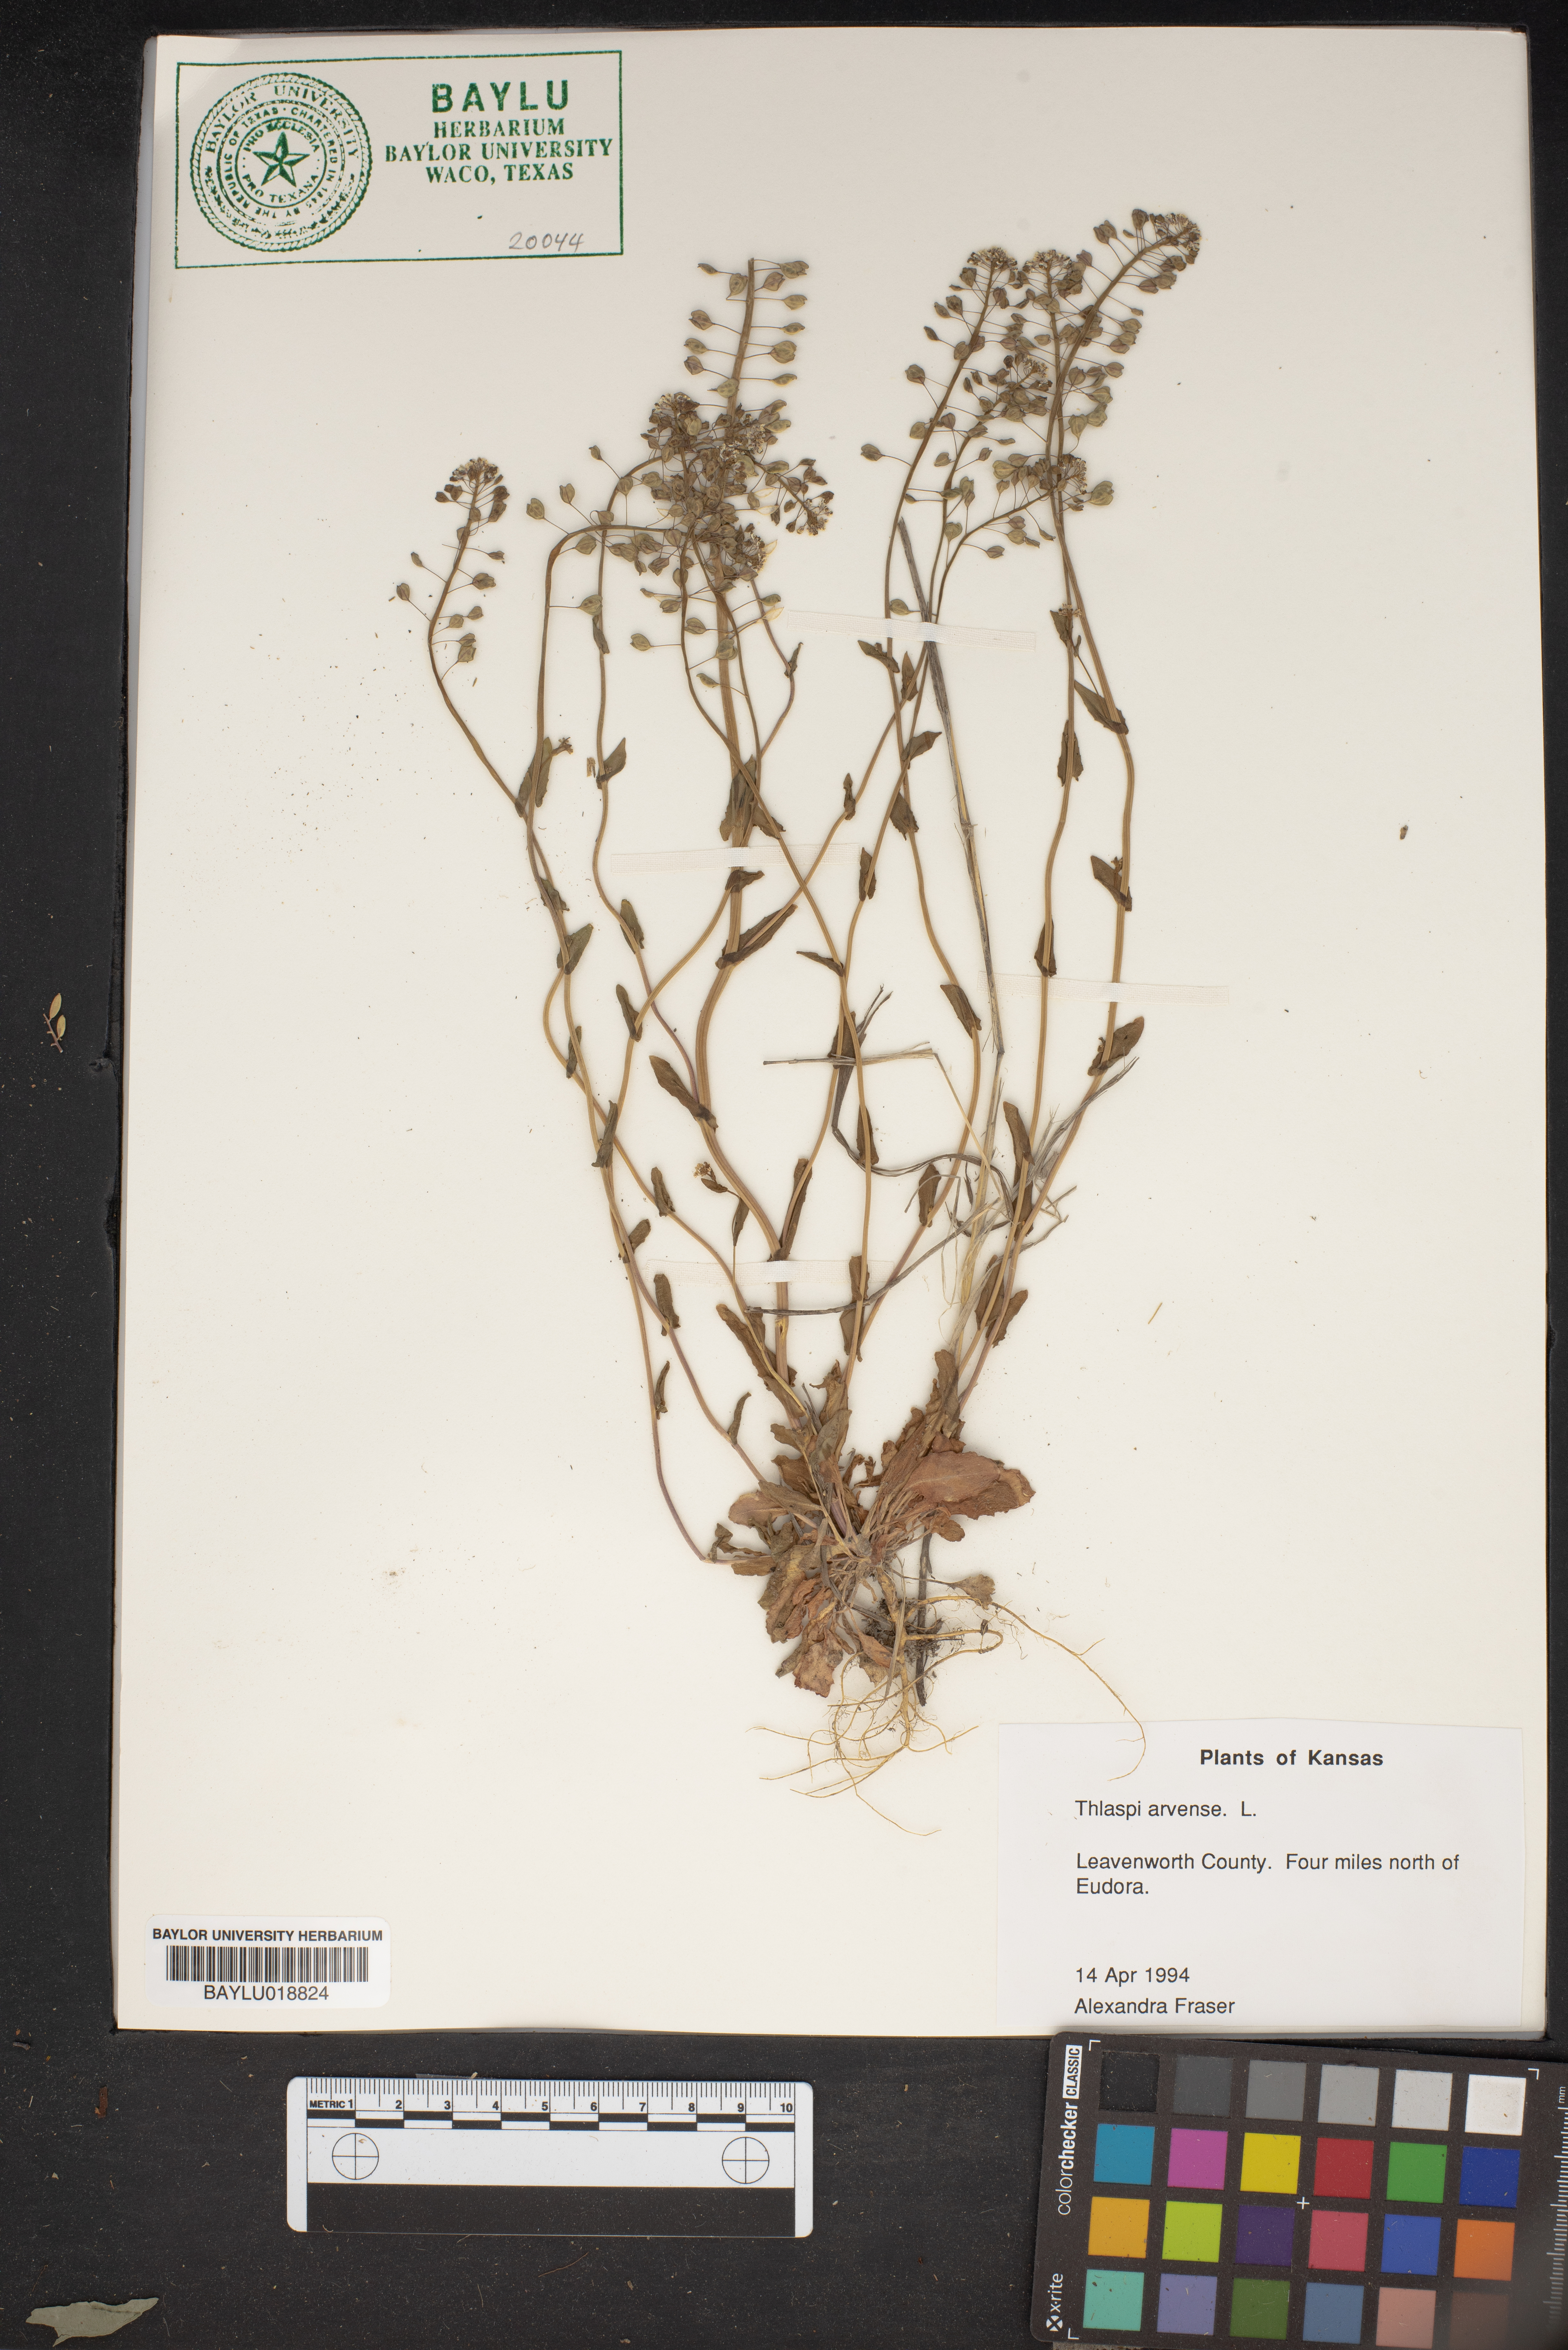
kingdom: Plantae
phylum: Tracheophyta
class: Magnoliopsida
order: Brassicales
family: Brassicaceae
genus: Thlaspi
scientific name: Thlaspi arvense
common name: Field pennycress
